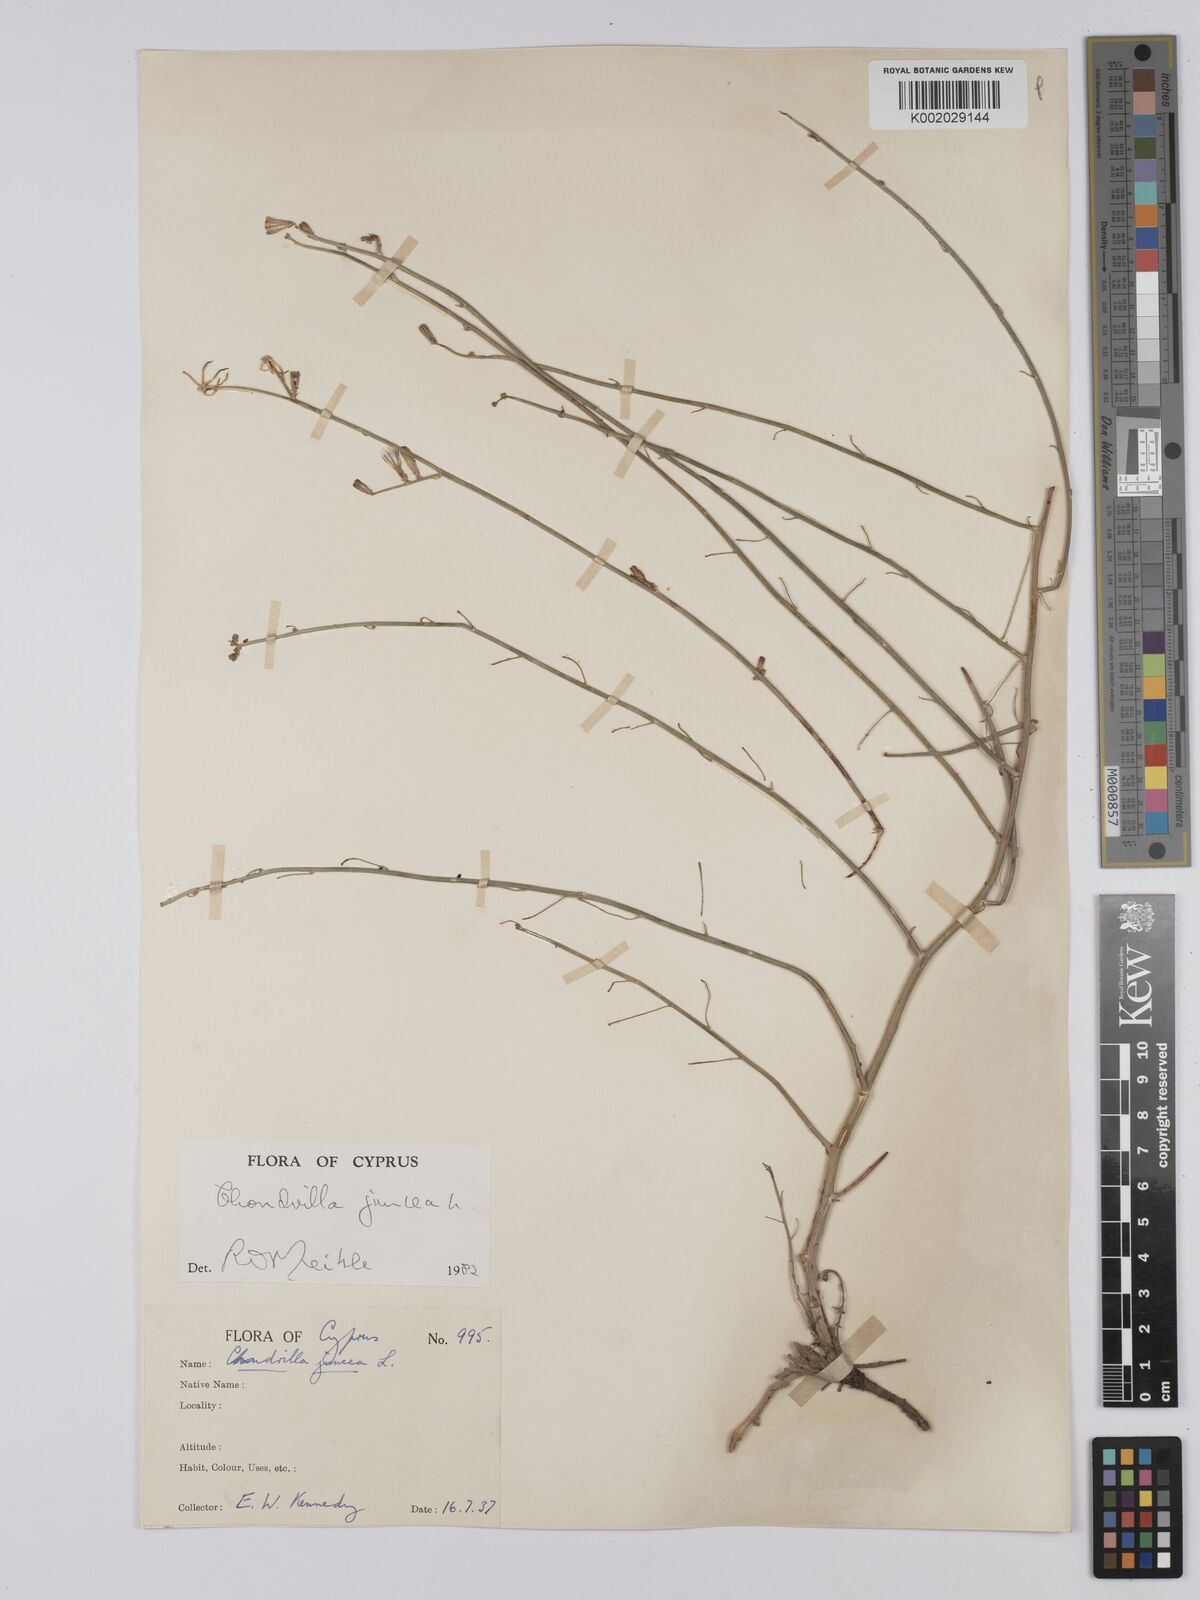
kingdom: Plantae
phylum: Tracheophyta
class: Magnoliopsida
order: Asterales
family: Asteraceae
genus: Chondrilla
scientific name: Chondrilla juncea
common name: Skeleton weed
